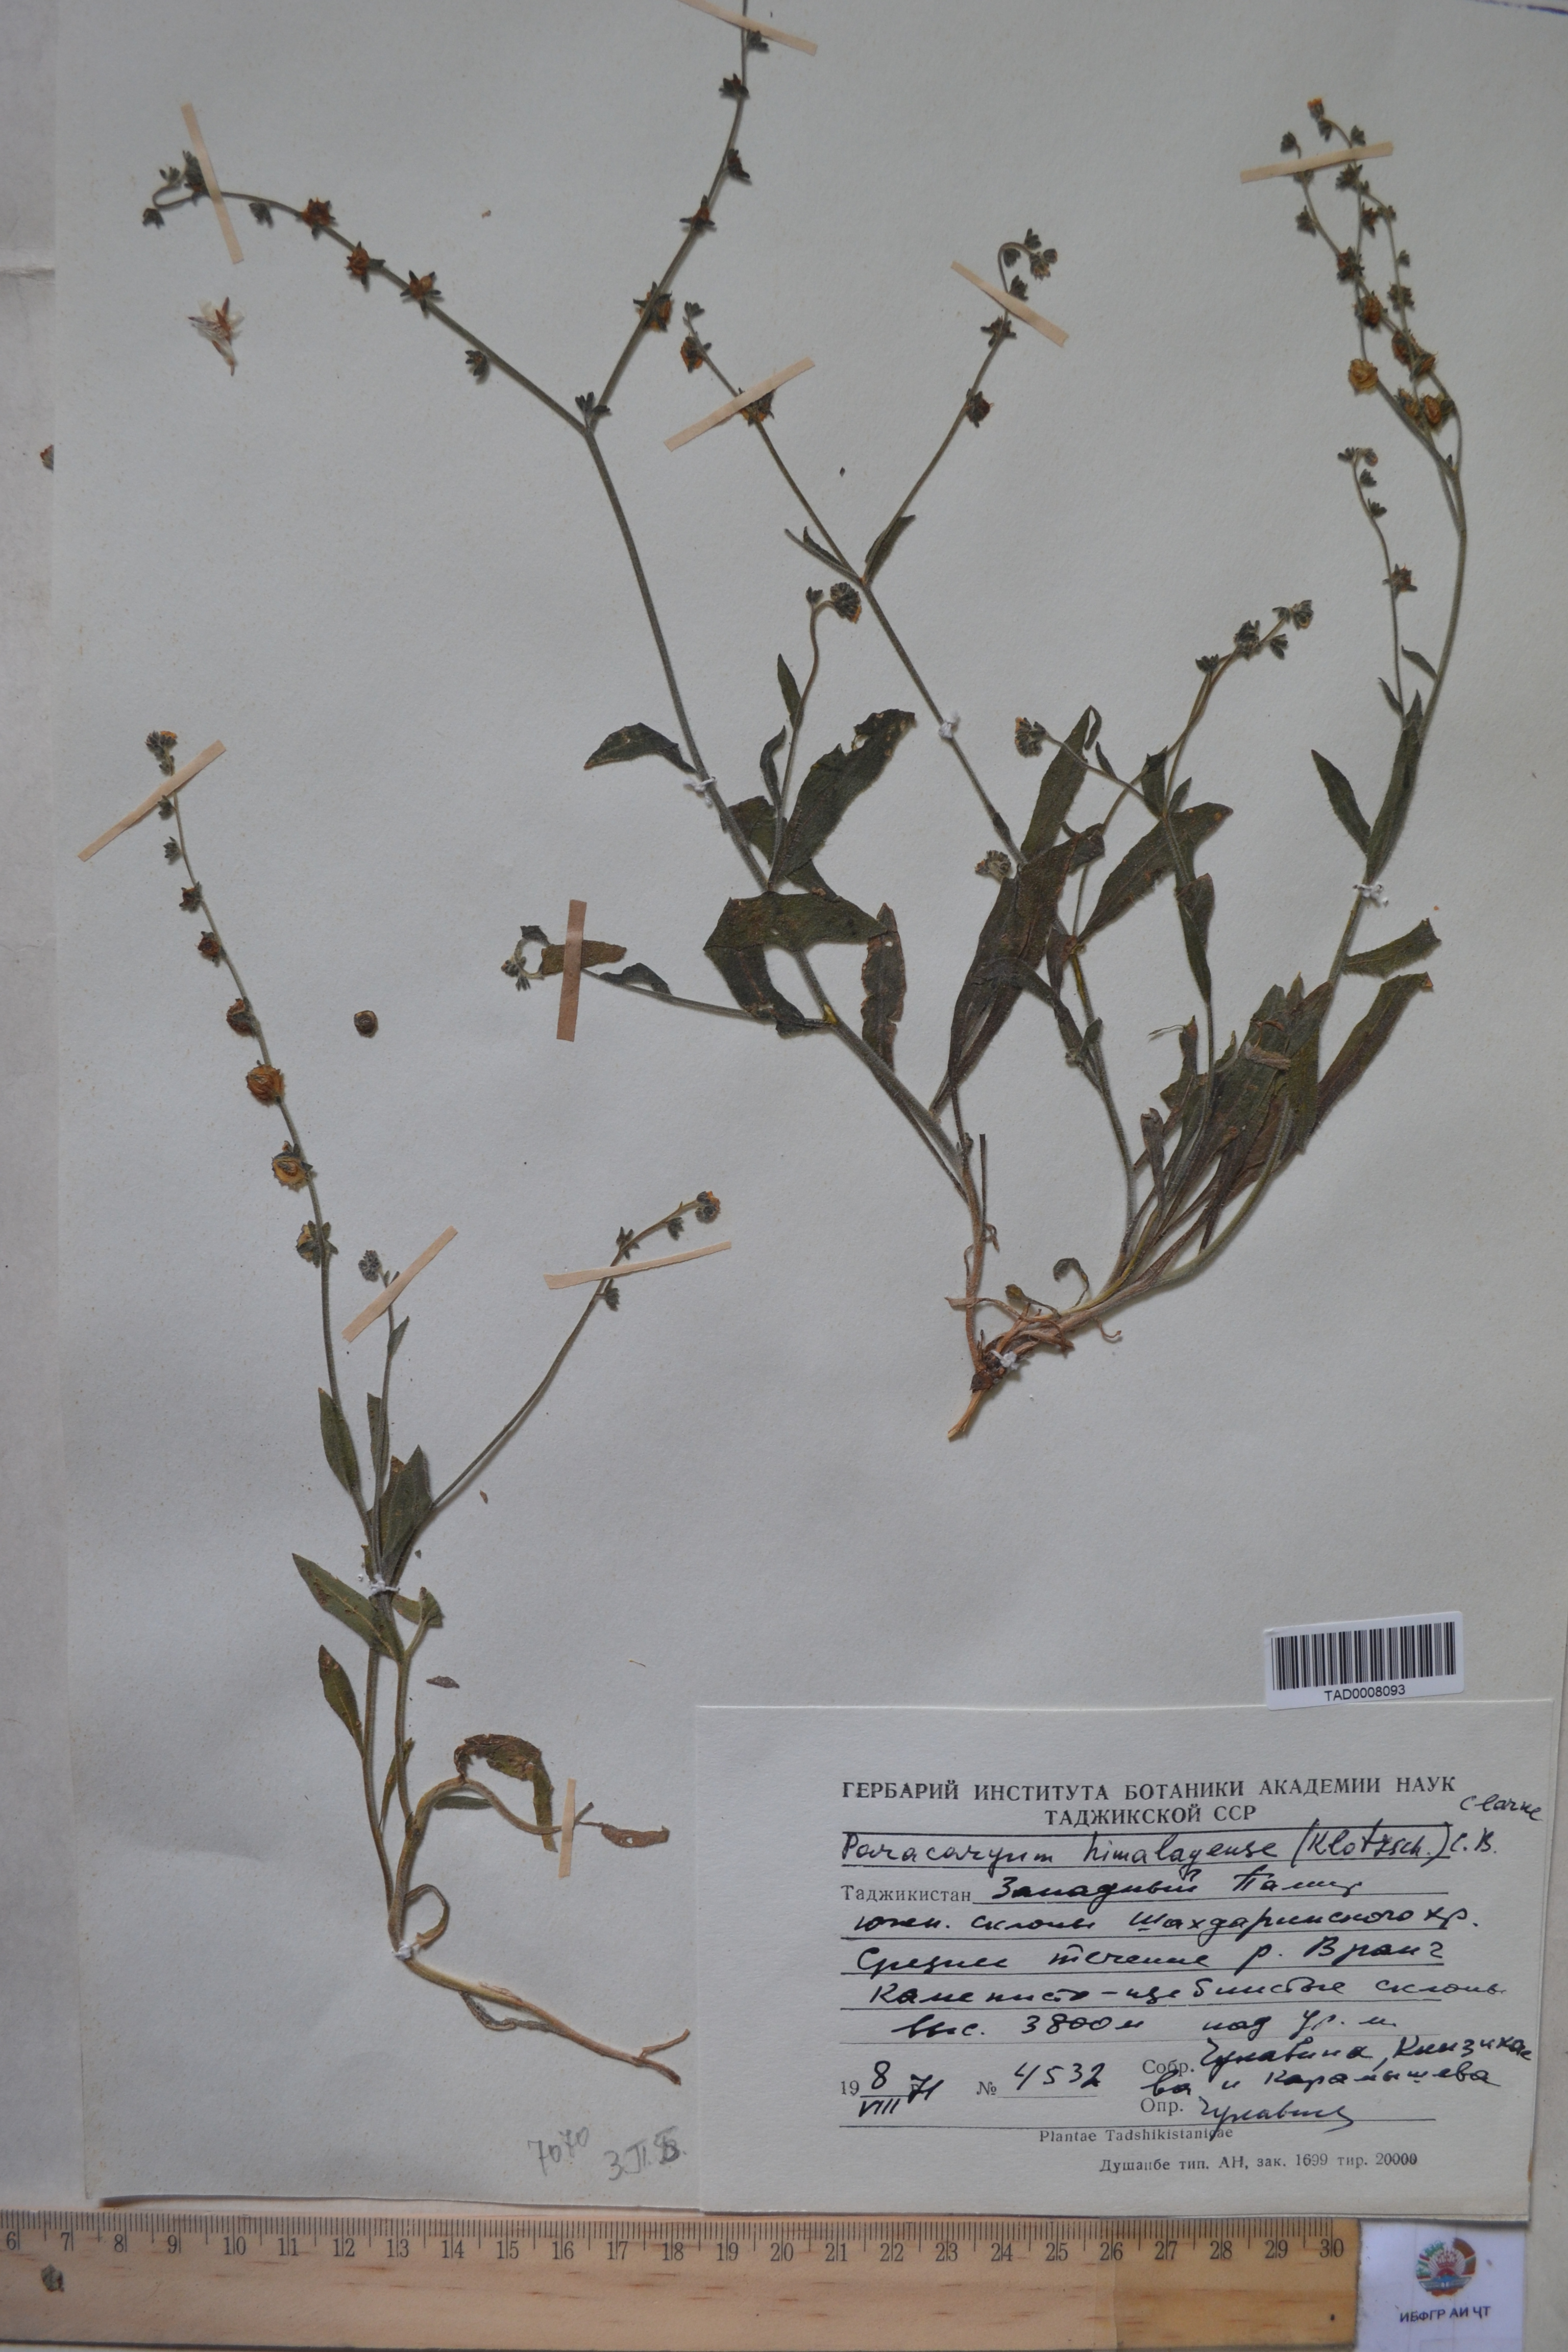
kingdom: Plantae
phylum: Tracheophyta
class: Magnoliopsida
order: Boraginales
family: Boraginaceae
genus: Paracaryum
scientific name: Paracaryum himalayense
